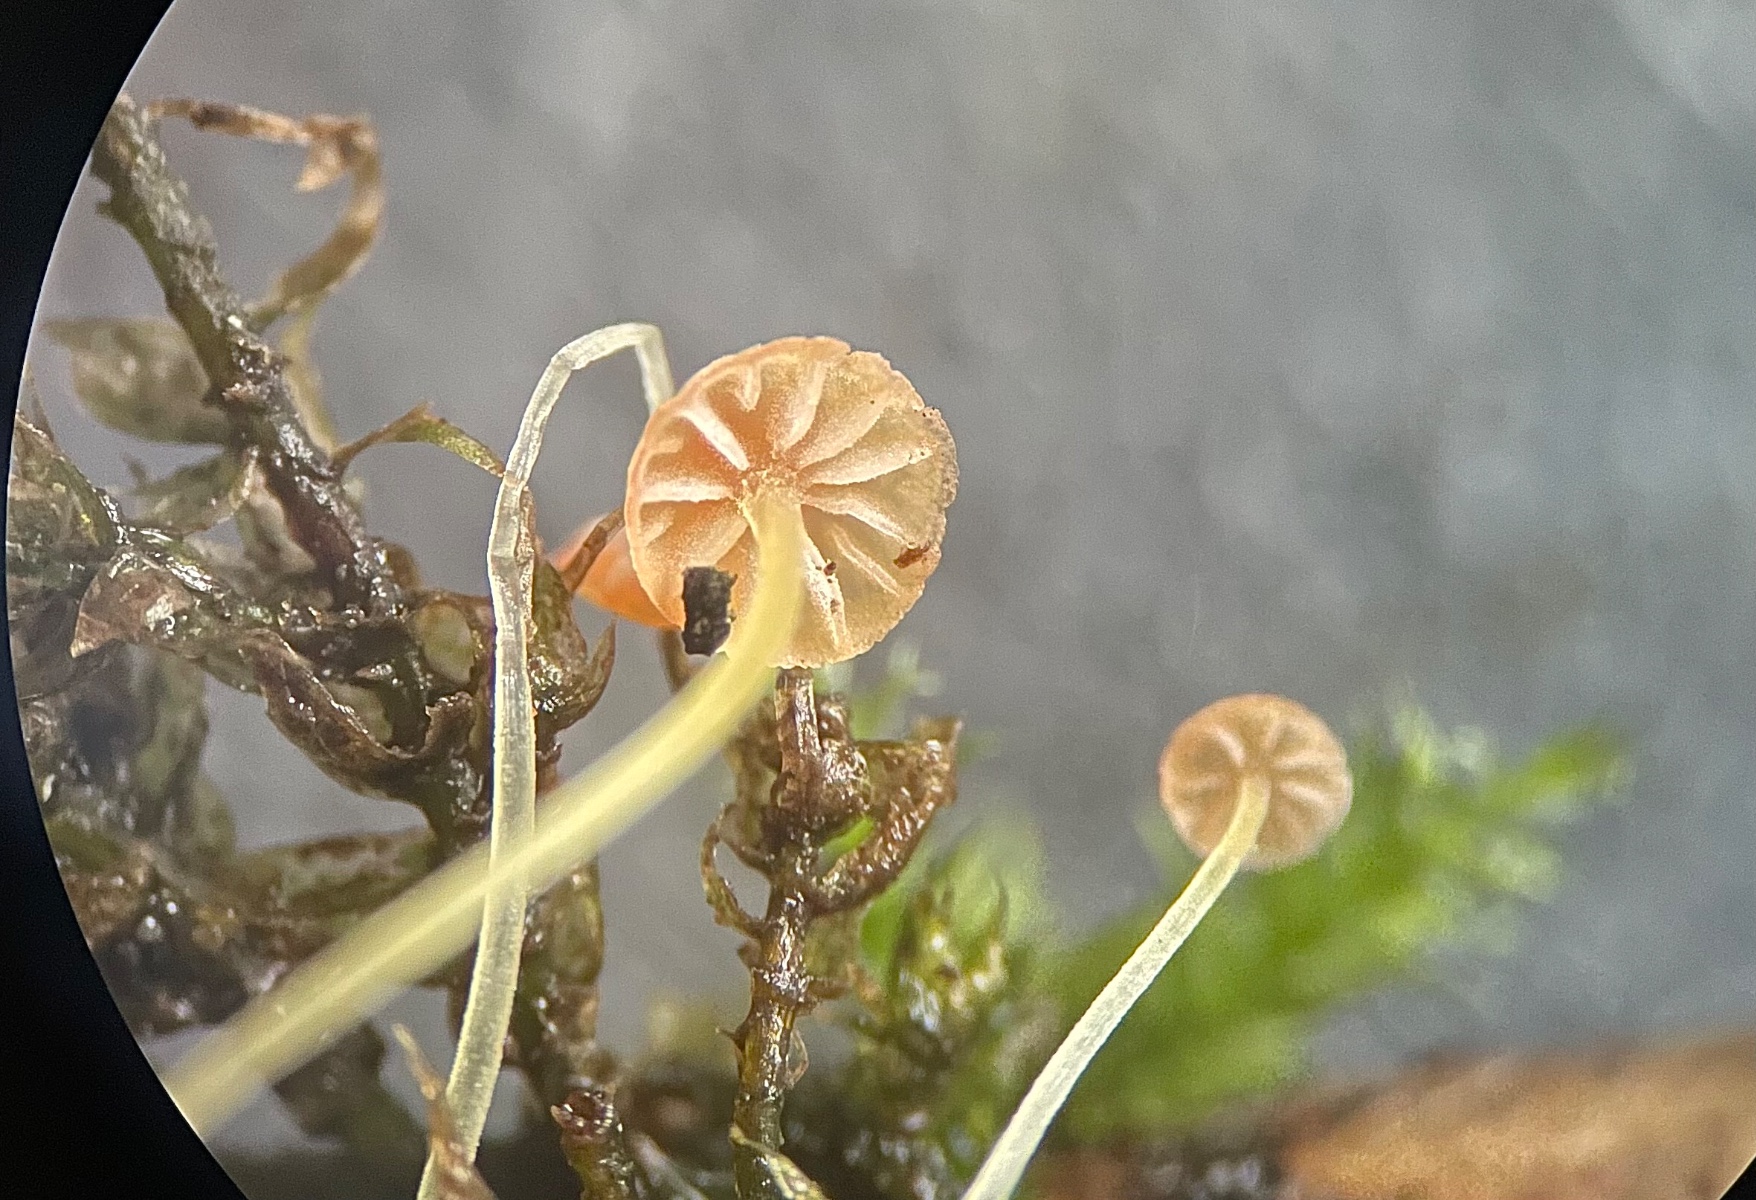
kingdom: Fungi
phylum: Basidiomycota
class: Agaricomycetes
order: Agaricales
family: Mycenaceae
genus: Mycena
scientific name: Mycena acicula
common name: orange huesvamp
